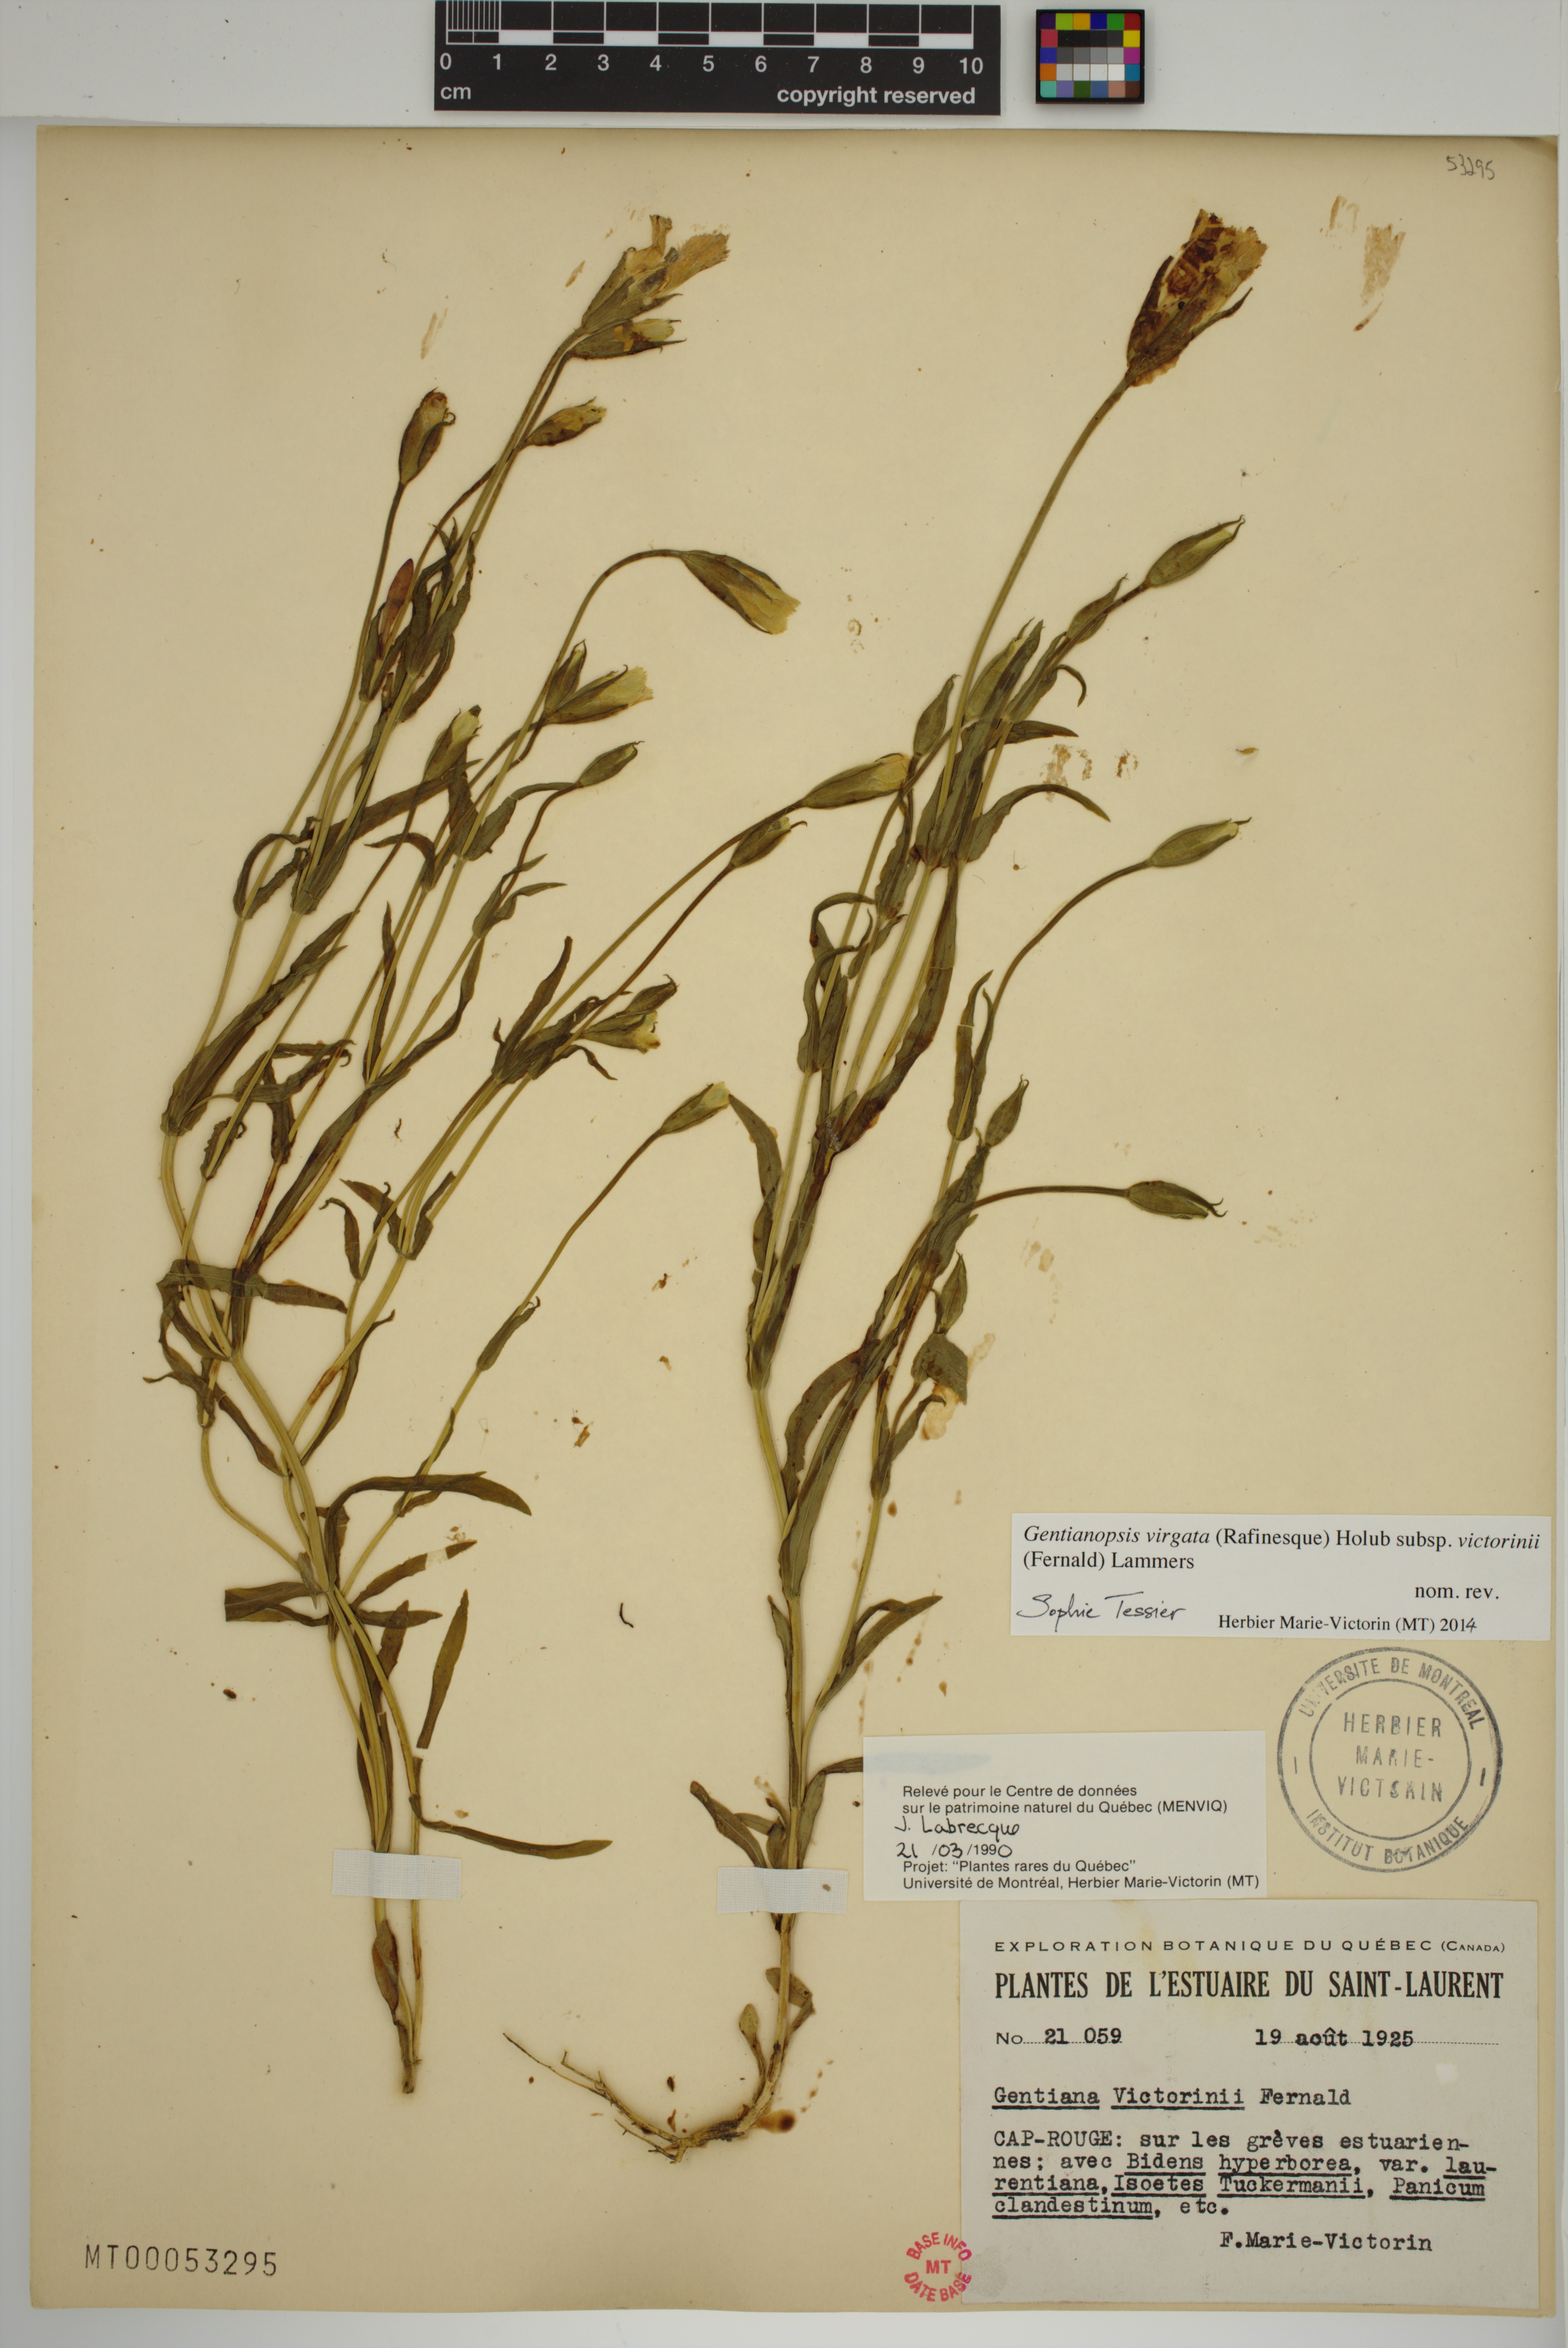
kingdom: Plantae
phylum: Tracheophyta
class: Magnoliopsida
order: Gentianales
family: Gentianaceae
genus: Gentianopsis
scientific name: Gentianopsis victorinii
